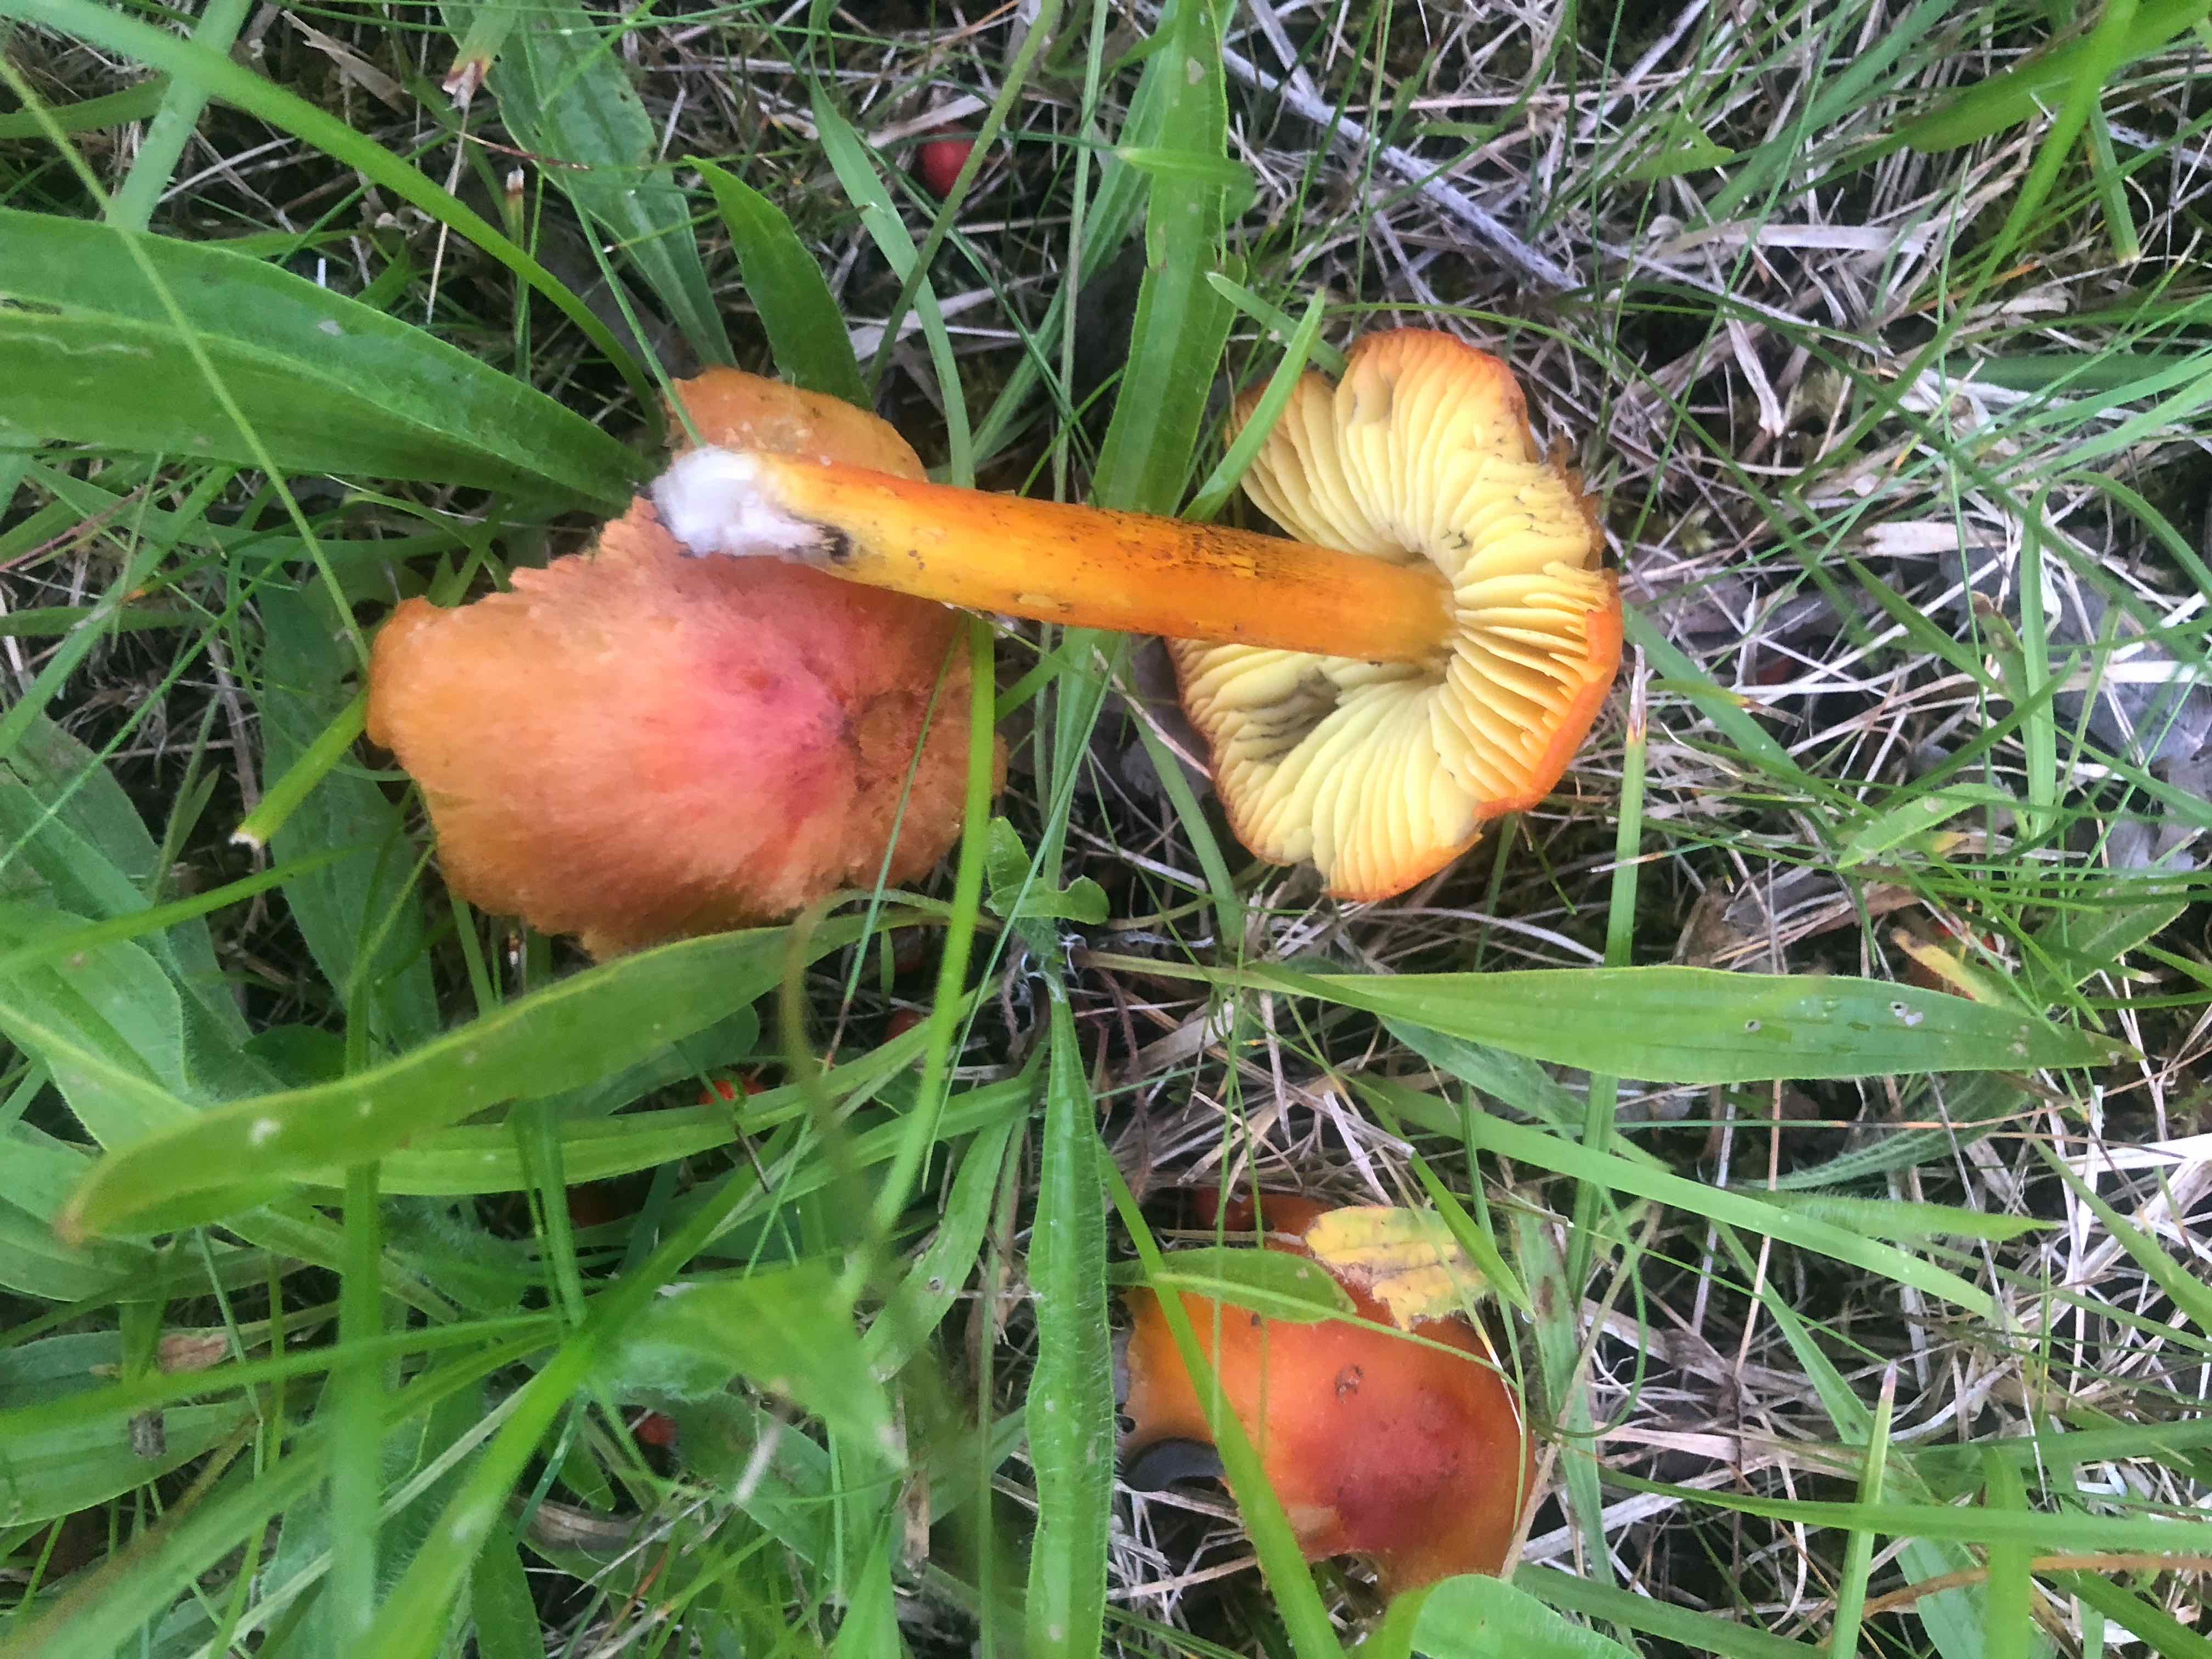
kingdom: Fungi
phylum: Basidiomycota
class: Agaricomycetes
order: Agaricales
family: Hygrophoraceae
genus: Hygrocybe
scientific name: Hygrocybe conica
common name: kegle-vokshat
